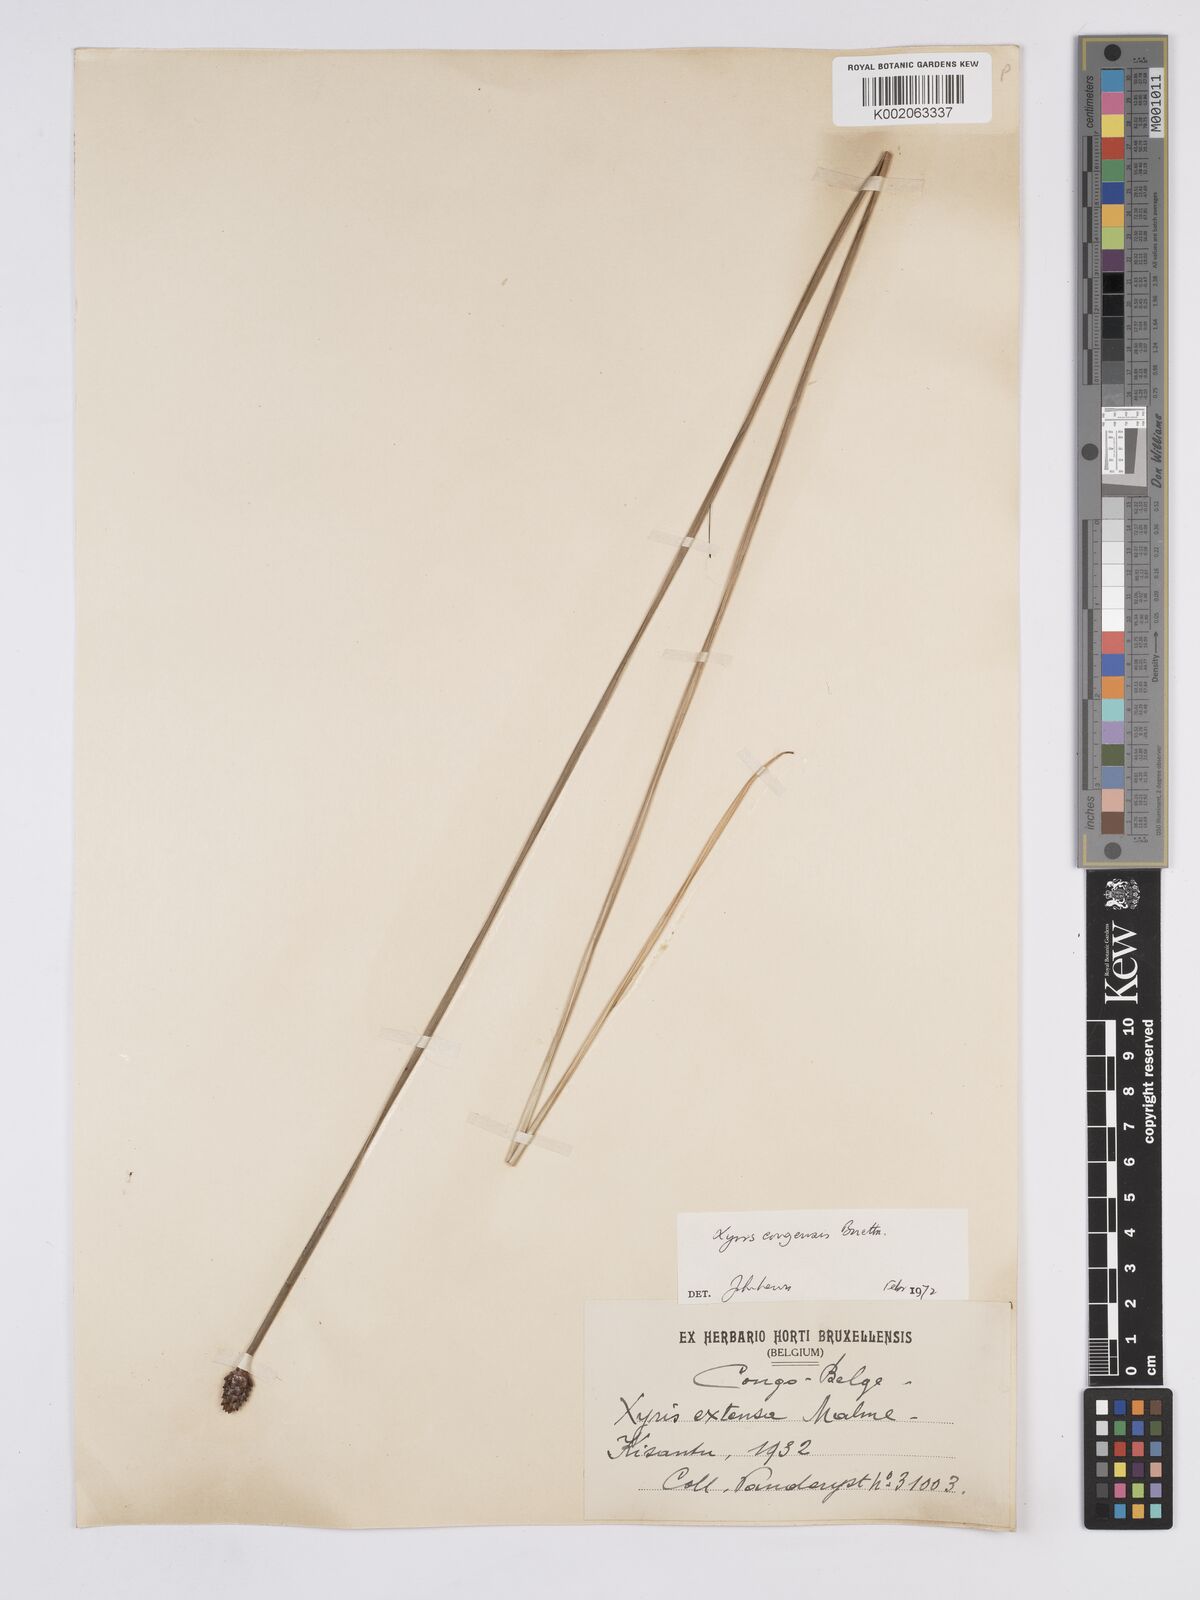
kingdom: Plantae
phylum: Tracheophyta
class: Liliopsida
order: Poales
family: Xyridaceae
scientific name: Xyridaceae
